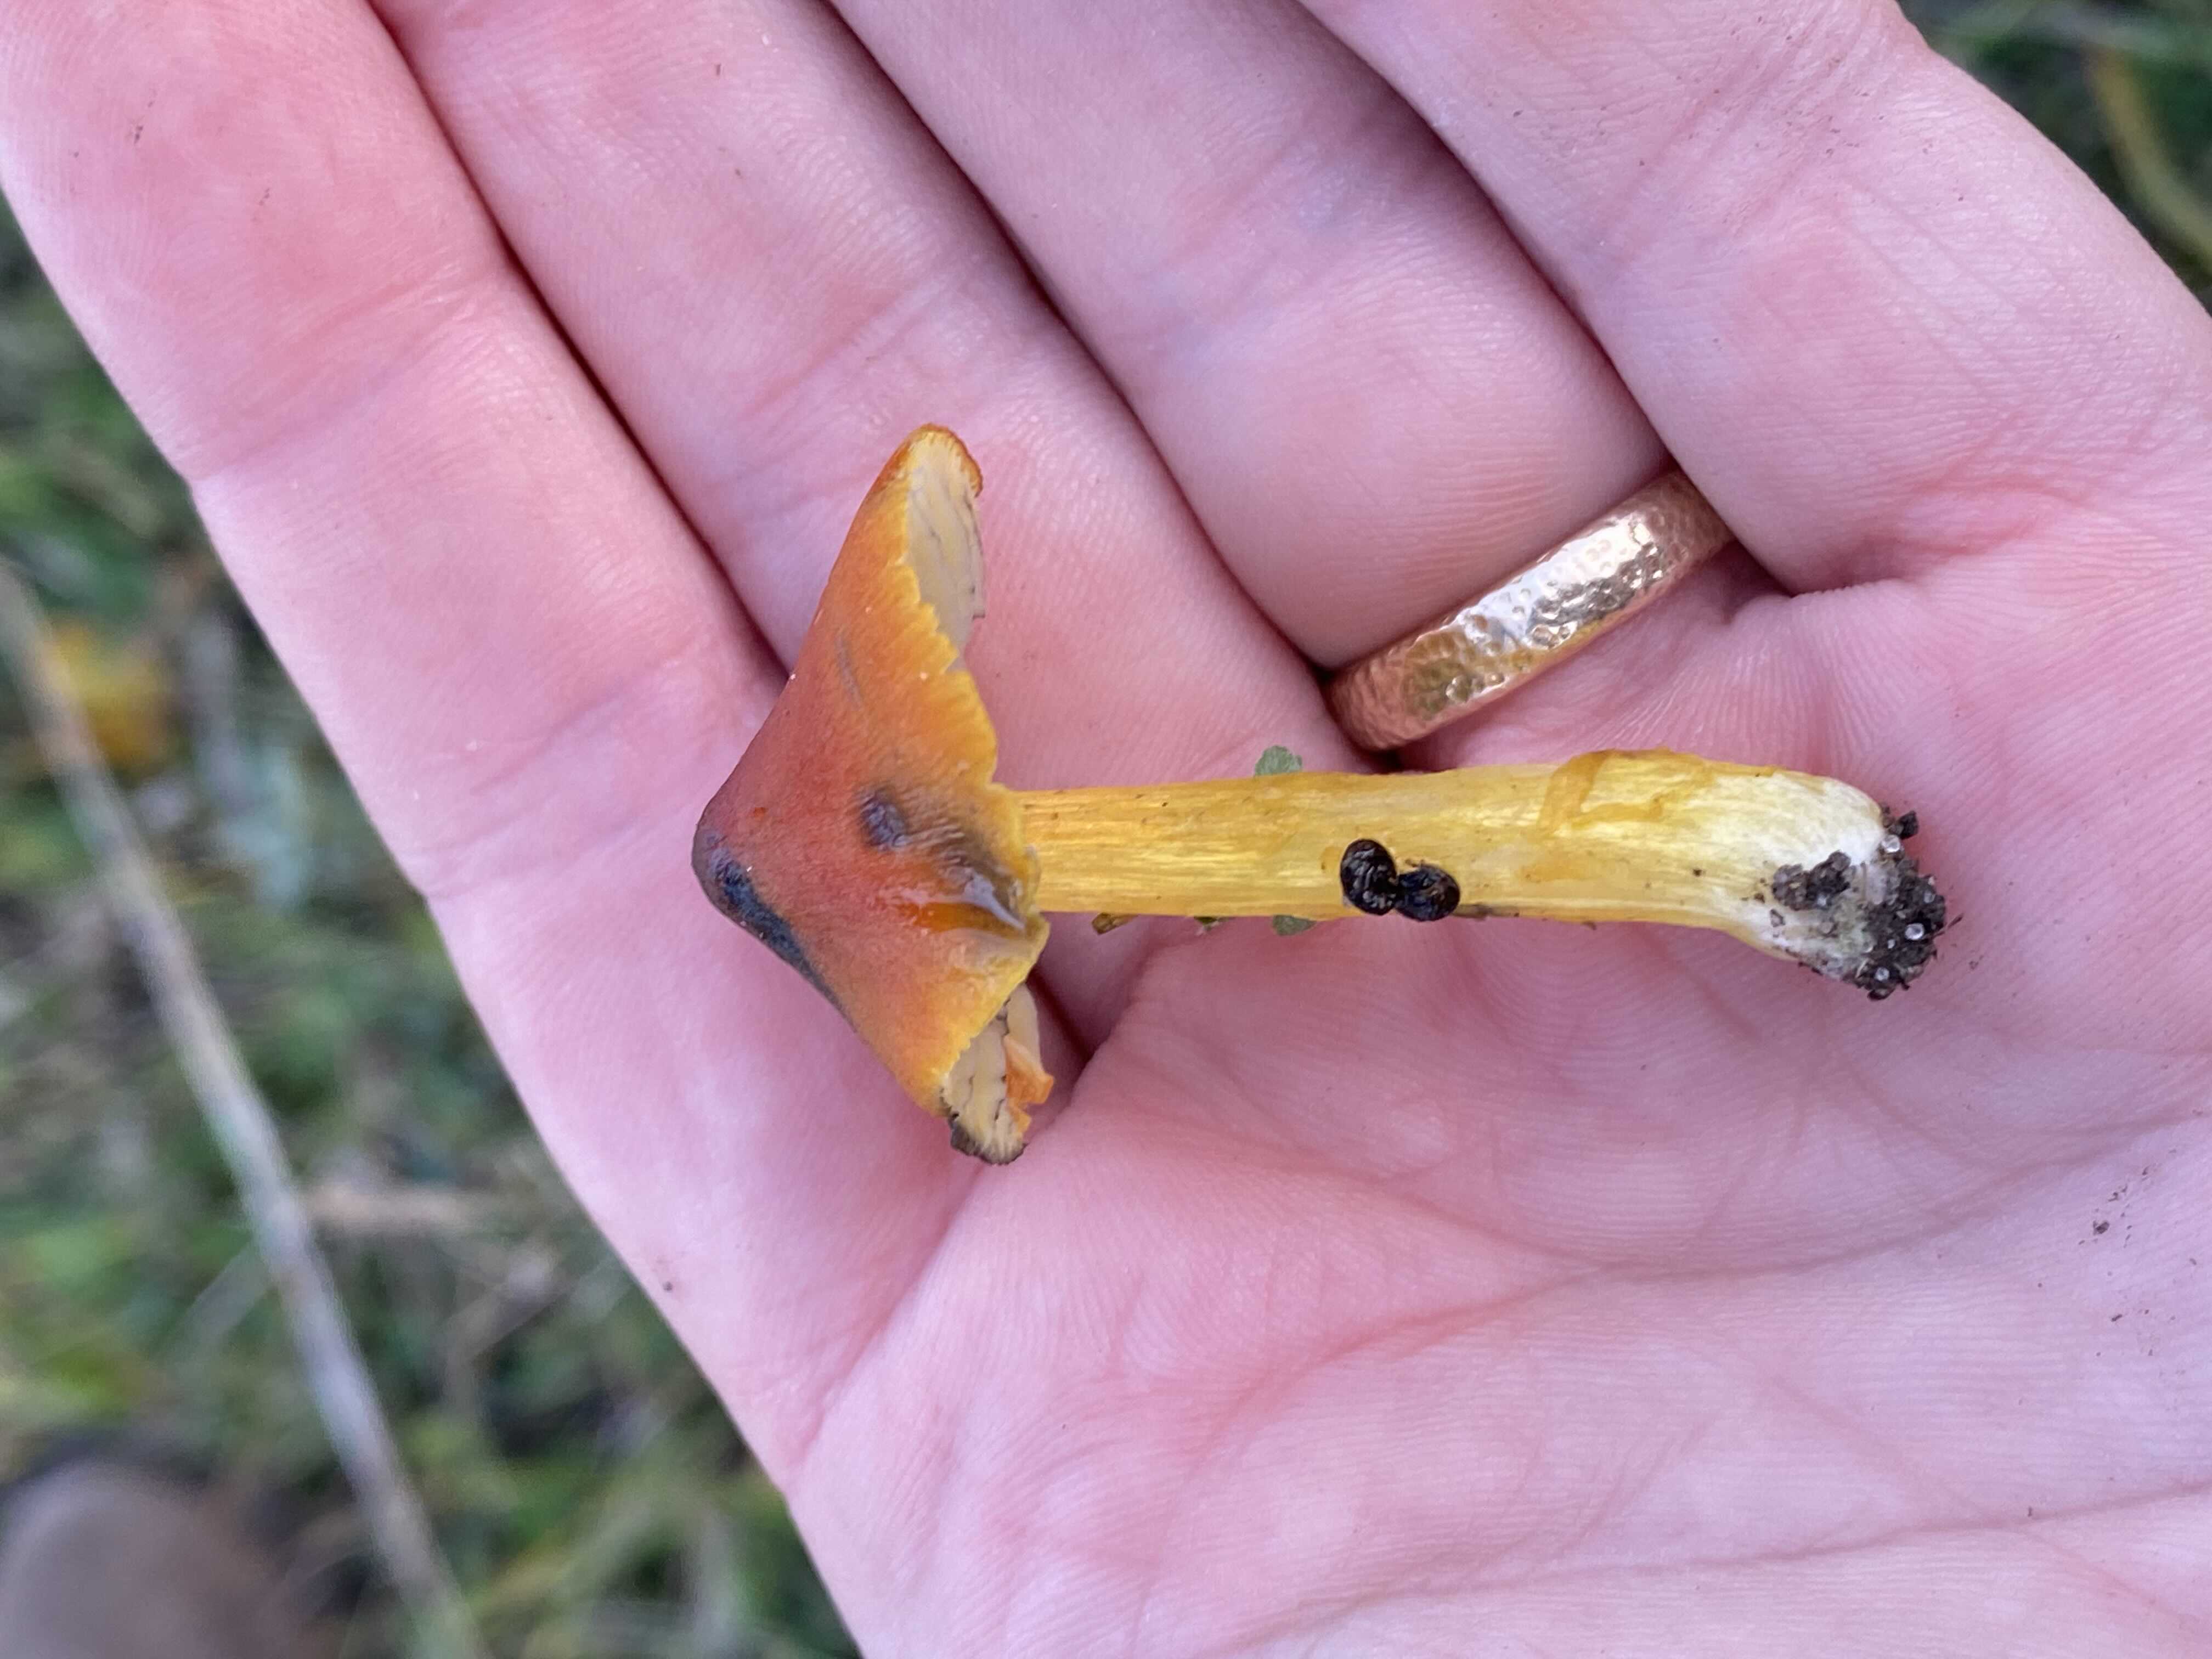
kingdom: Fungi
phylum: Basidiomycota
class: Agaricomycetes
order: Agaricales
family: Hygrophoraceae
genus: Hygrocybe
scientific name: Hygrocybe conica
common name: kegle-vokshat
